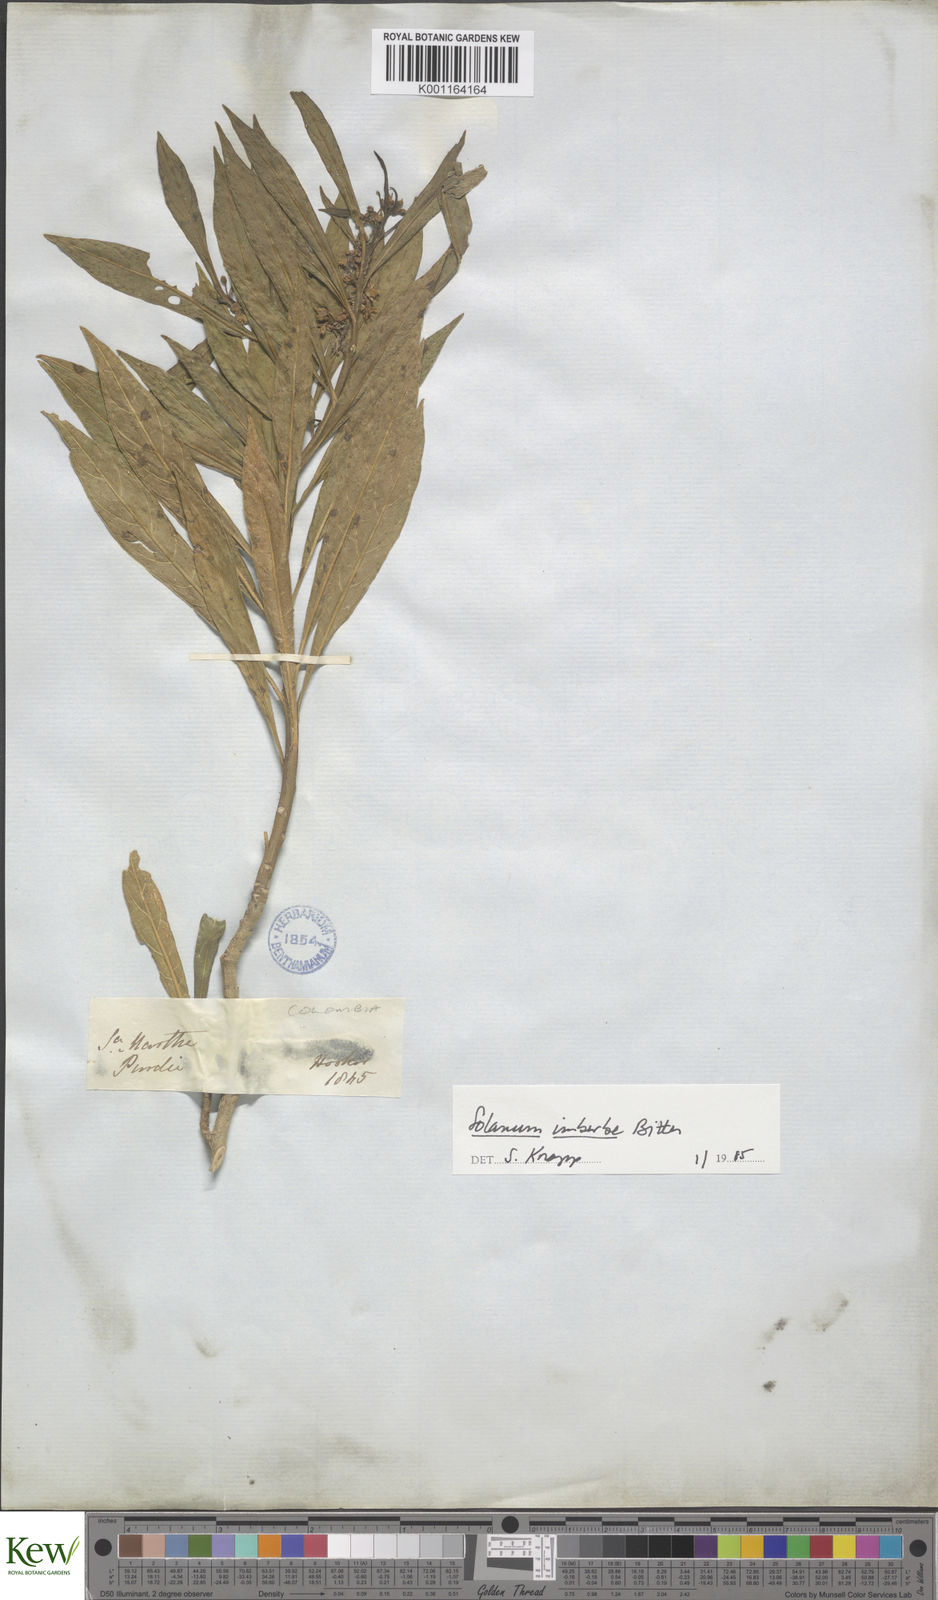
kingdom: Plantae
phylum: Tracheophyta
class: Magnoliopsida
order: Solanales
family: Solanaceae
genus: Solanum
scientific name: Solanum imberbe
